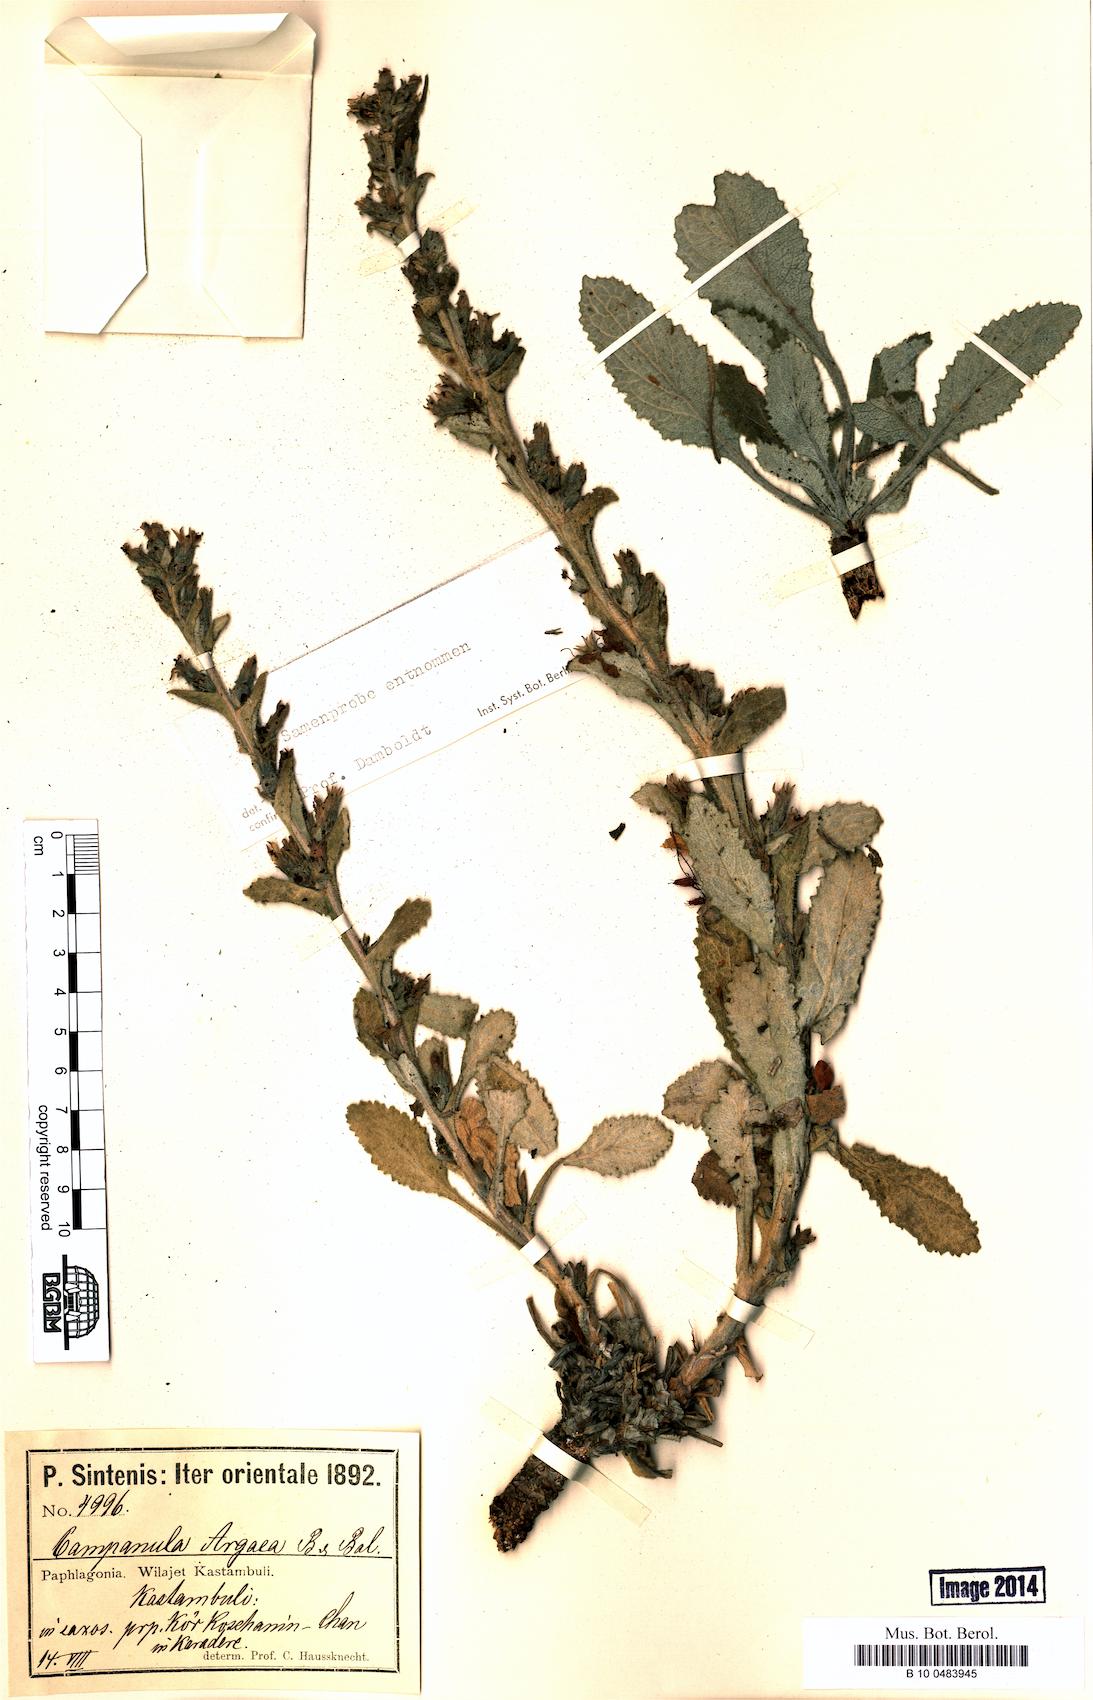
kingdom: Plantae
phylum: Tracheophyta
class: Magnoliopsida
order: Asterales
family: Campanulaceae
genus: Campanula
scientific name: Campanula ajugifolia
